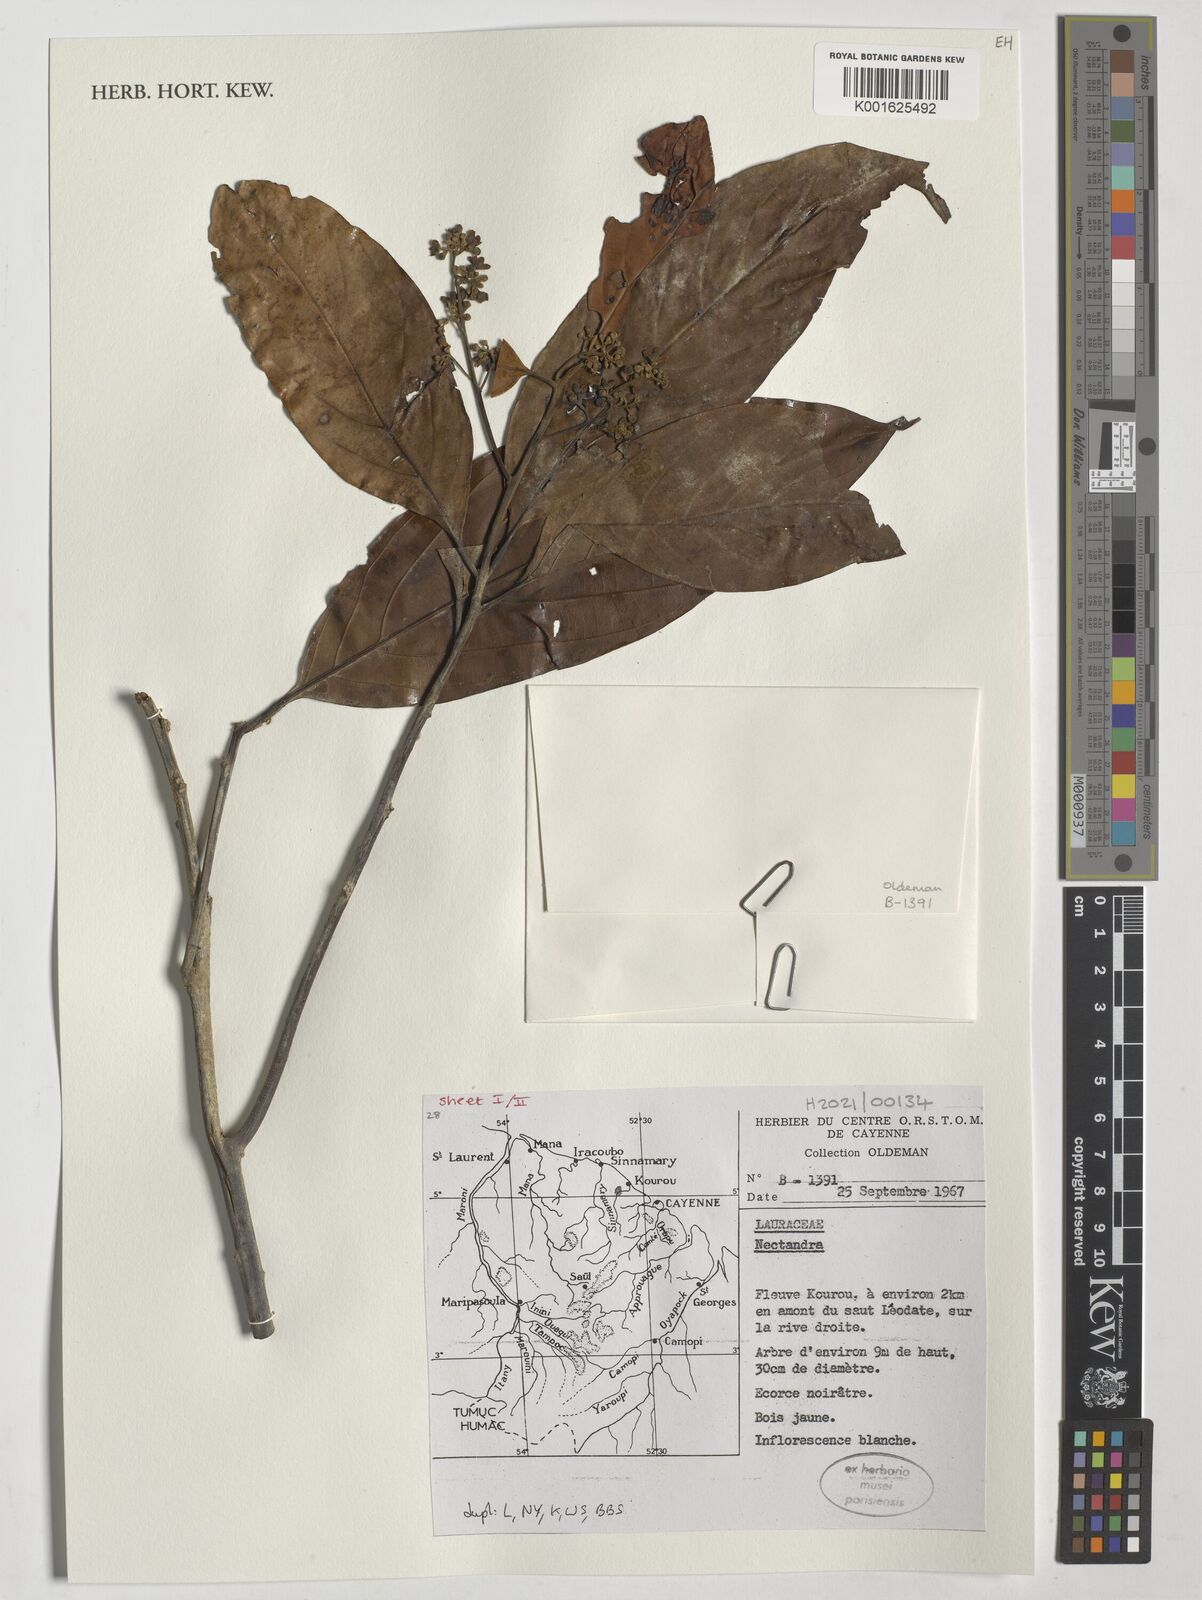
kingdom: Plantae
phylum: Tracheophyta
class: Magnoliopsida
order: Laurales
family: Lauraceae
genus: Nectandra
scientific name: Nectandra
